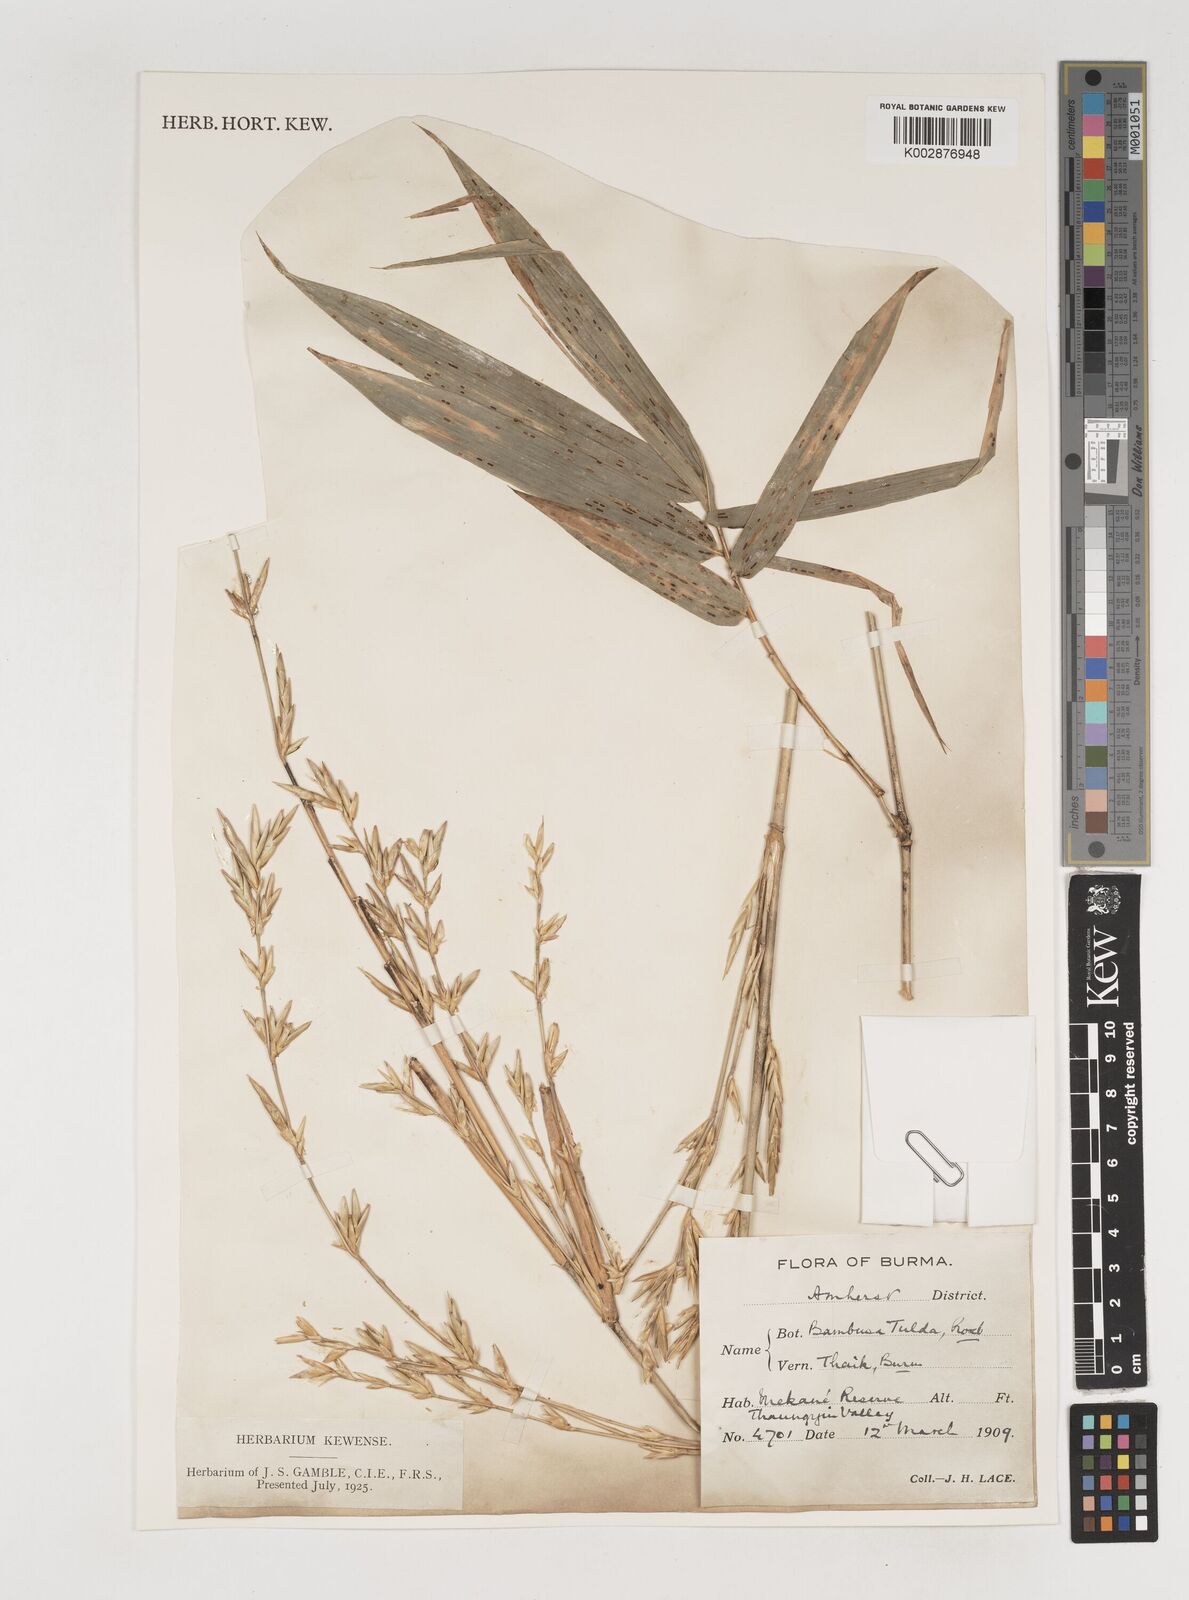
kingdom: Plantae
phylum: Tracheophyta
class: Liliopsida
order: Poales
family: Poaceae
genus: Bambusa
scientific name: Bambusa tulda
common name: Bengal bamboo
